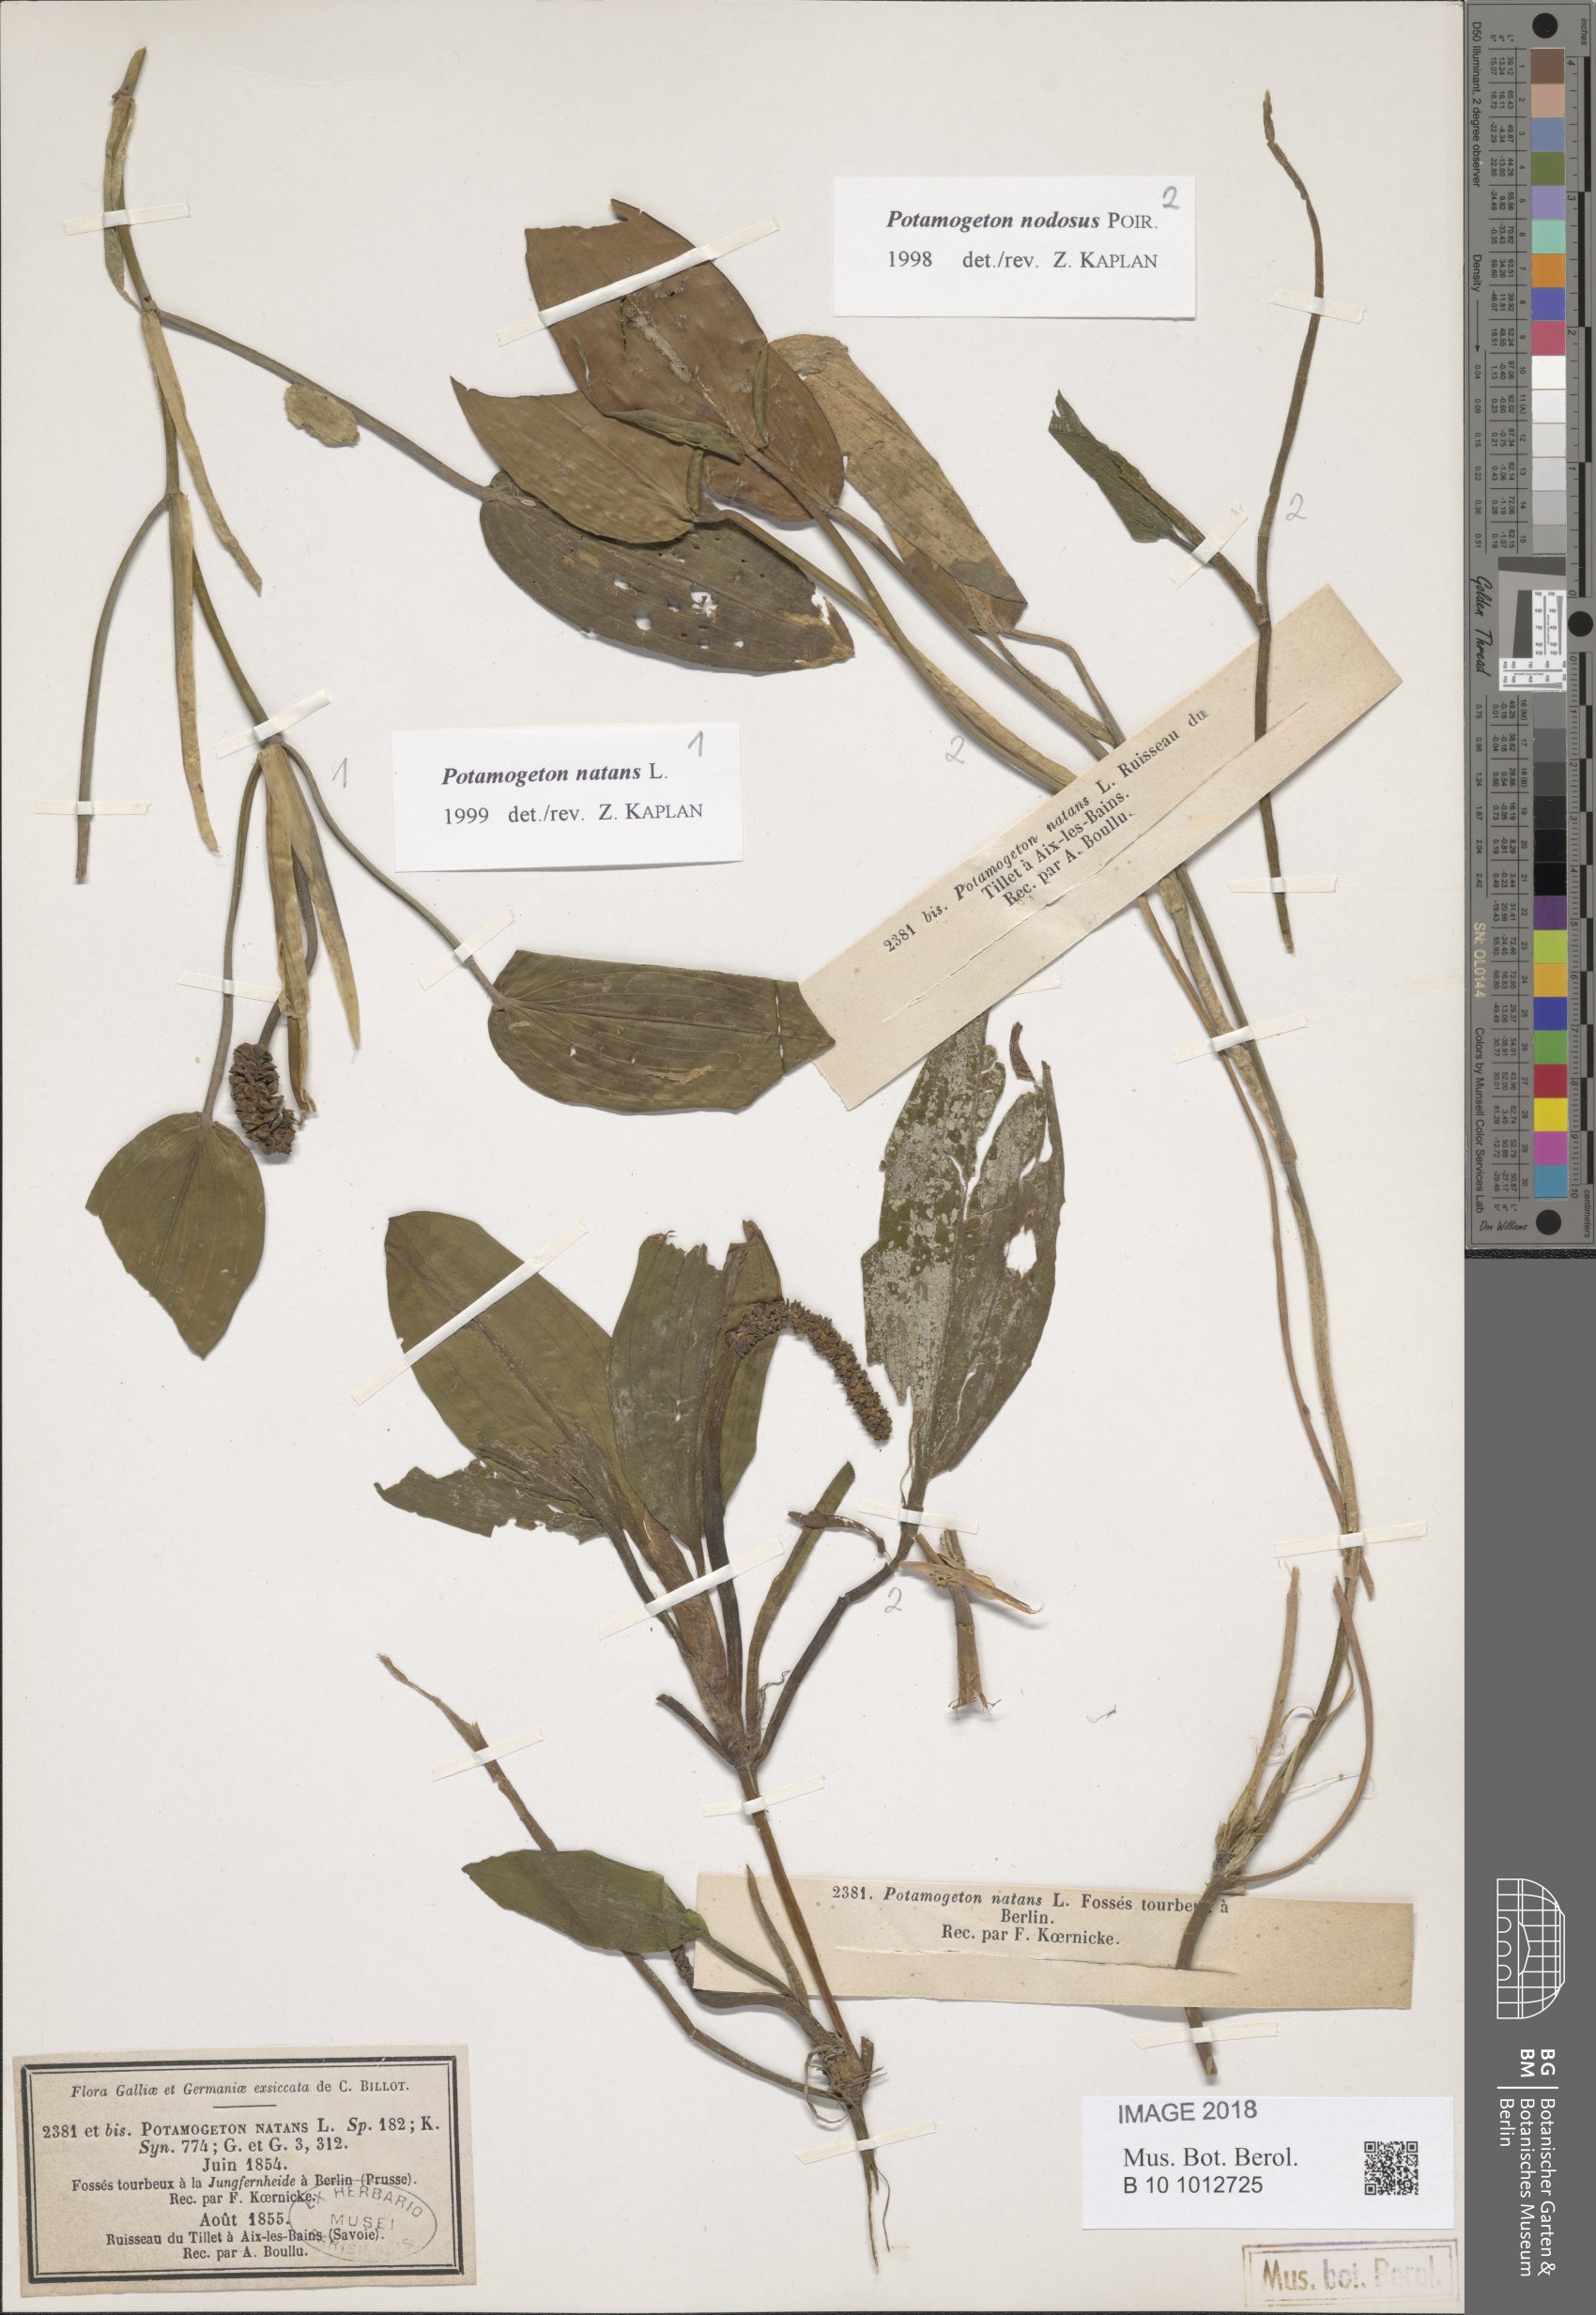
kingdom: Plantae
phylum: Tracheophyta
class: Liliopsida
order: Alismatales
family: Potamogetonaceae
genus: Potamogeton
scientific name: Potamogeton nodosus
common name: Loddon pondweed
